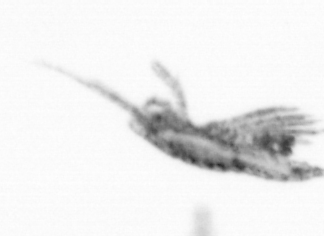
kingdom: Animalia
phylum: Arthropoda
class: Copepoda
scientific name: Copepoda
